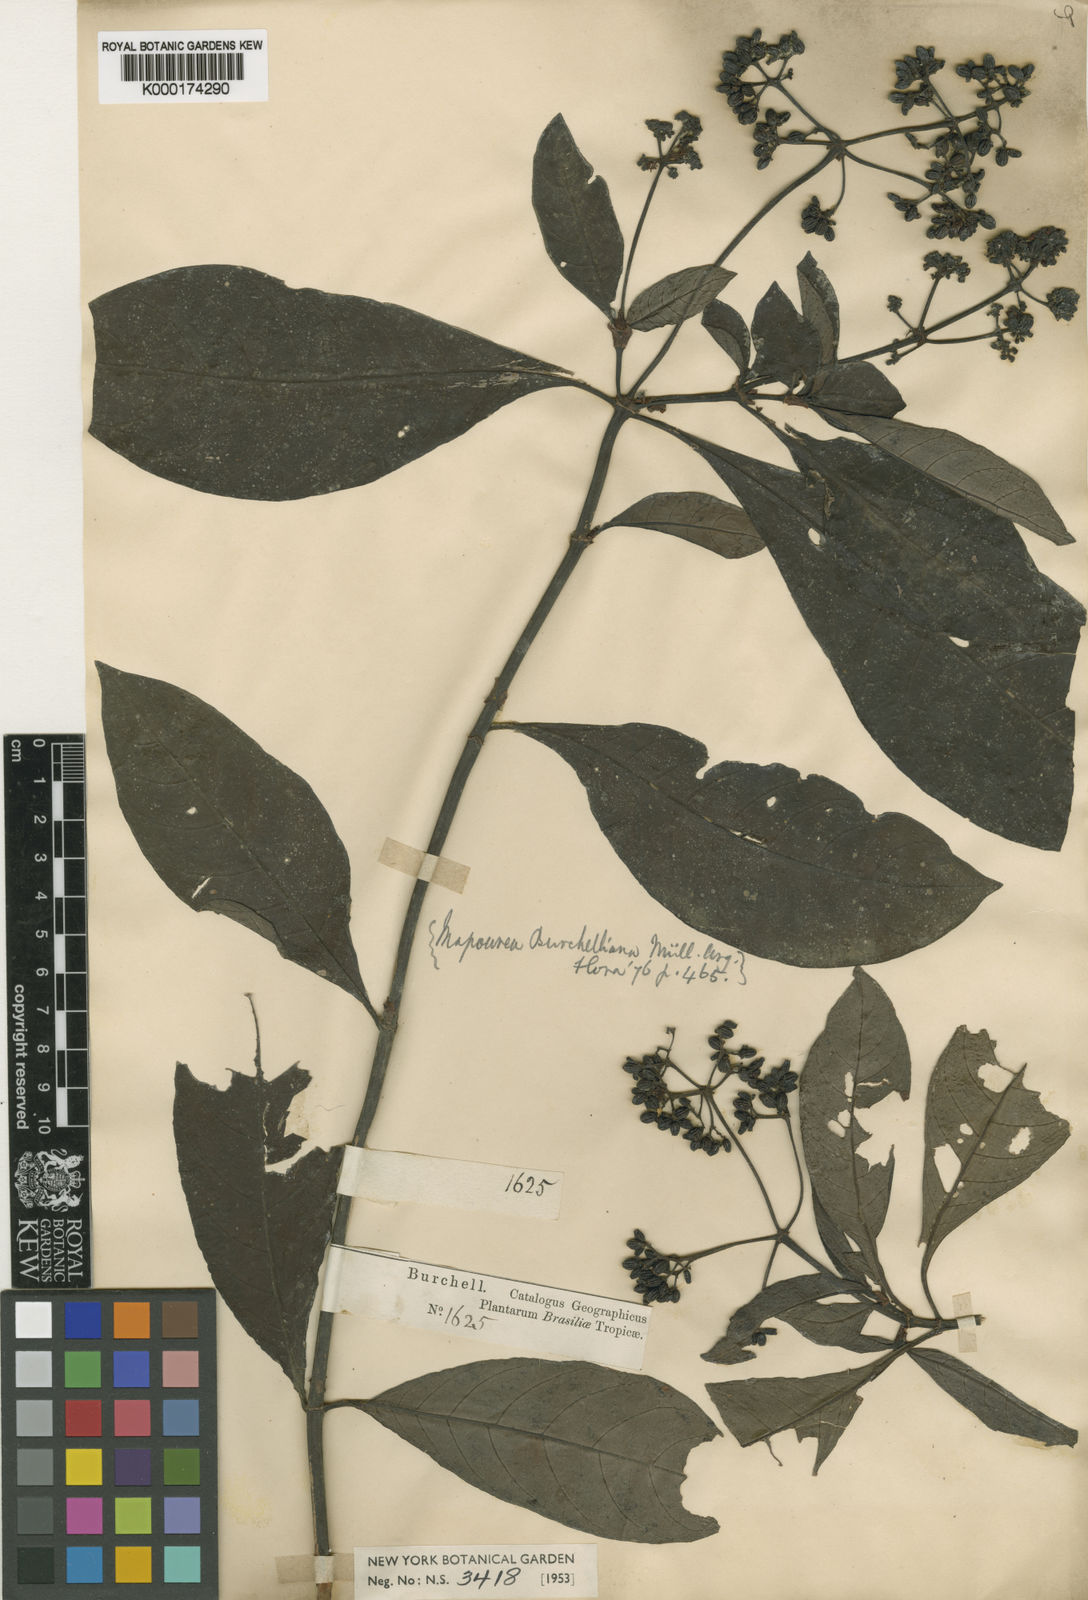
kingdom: Plantae
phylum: Tracheophyta
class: Magnoliopsida
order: Gentianales
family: Rubiaceae
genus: Psychotria
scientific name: Psychotria
